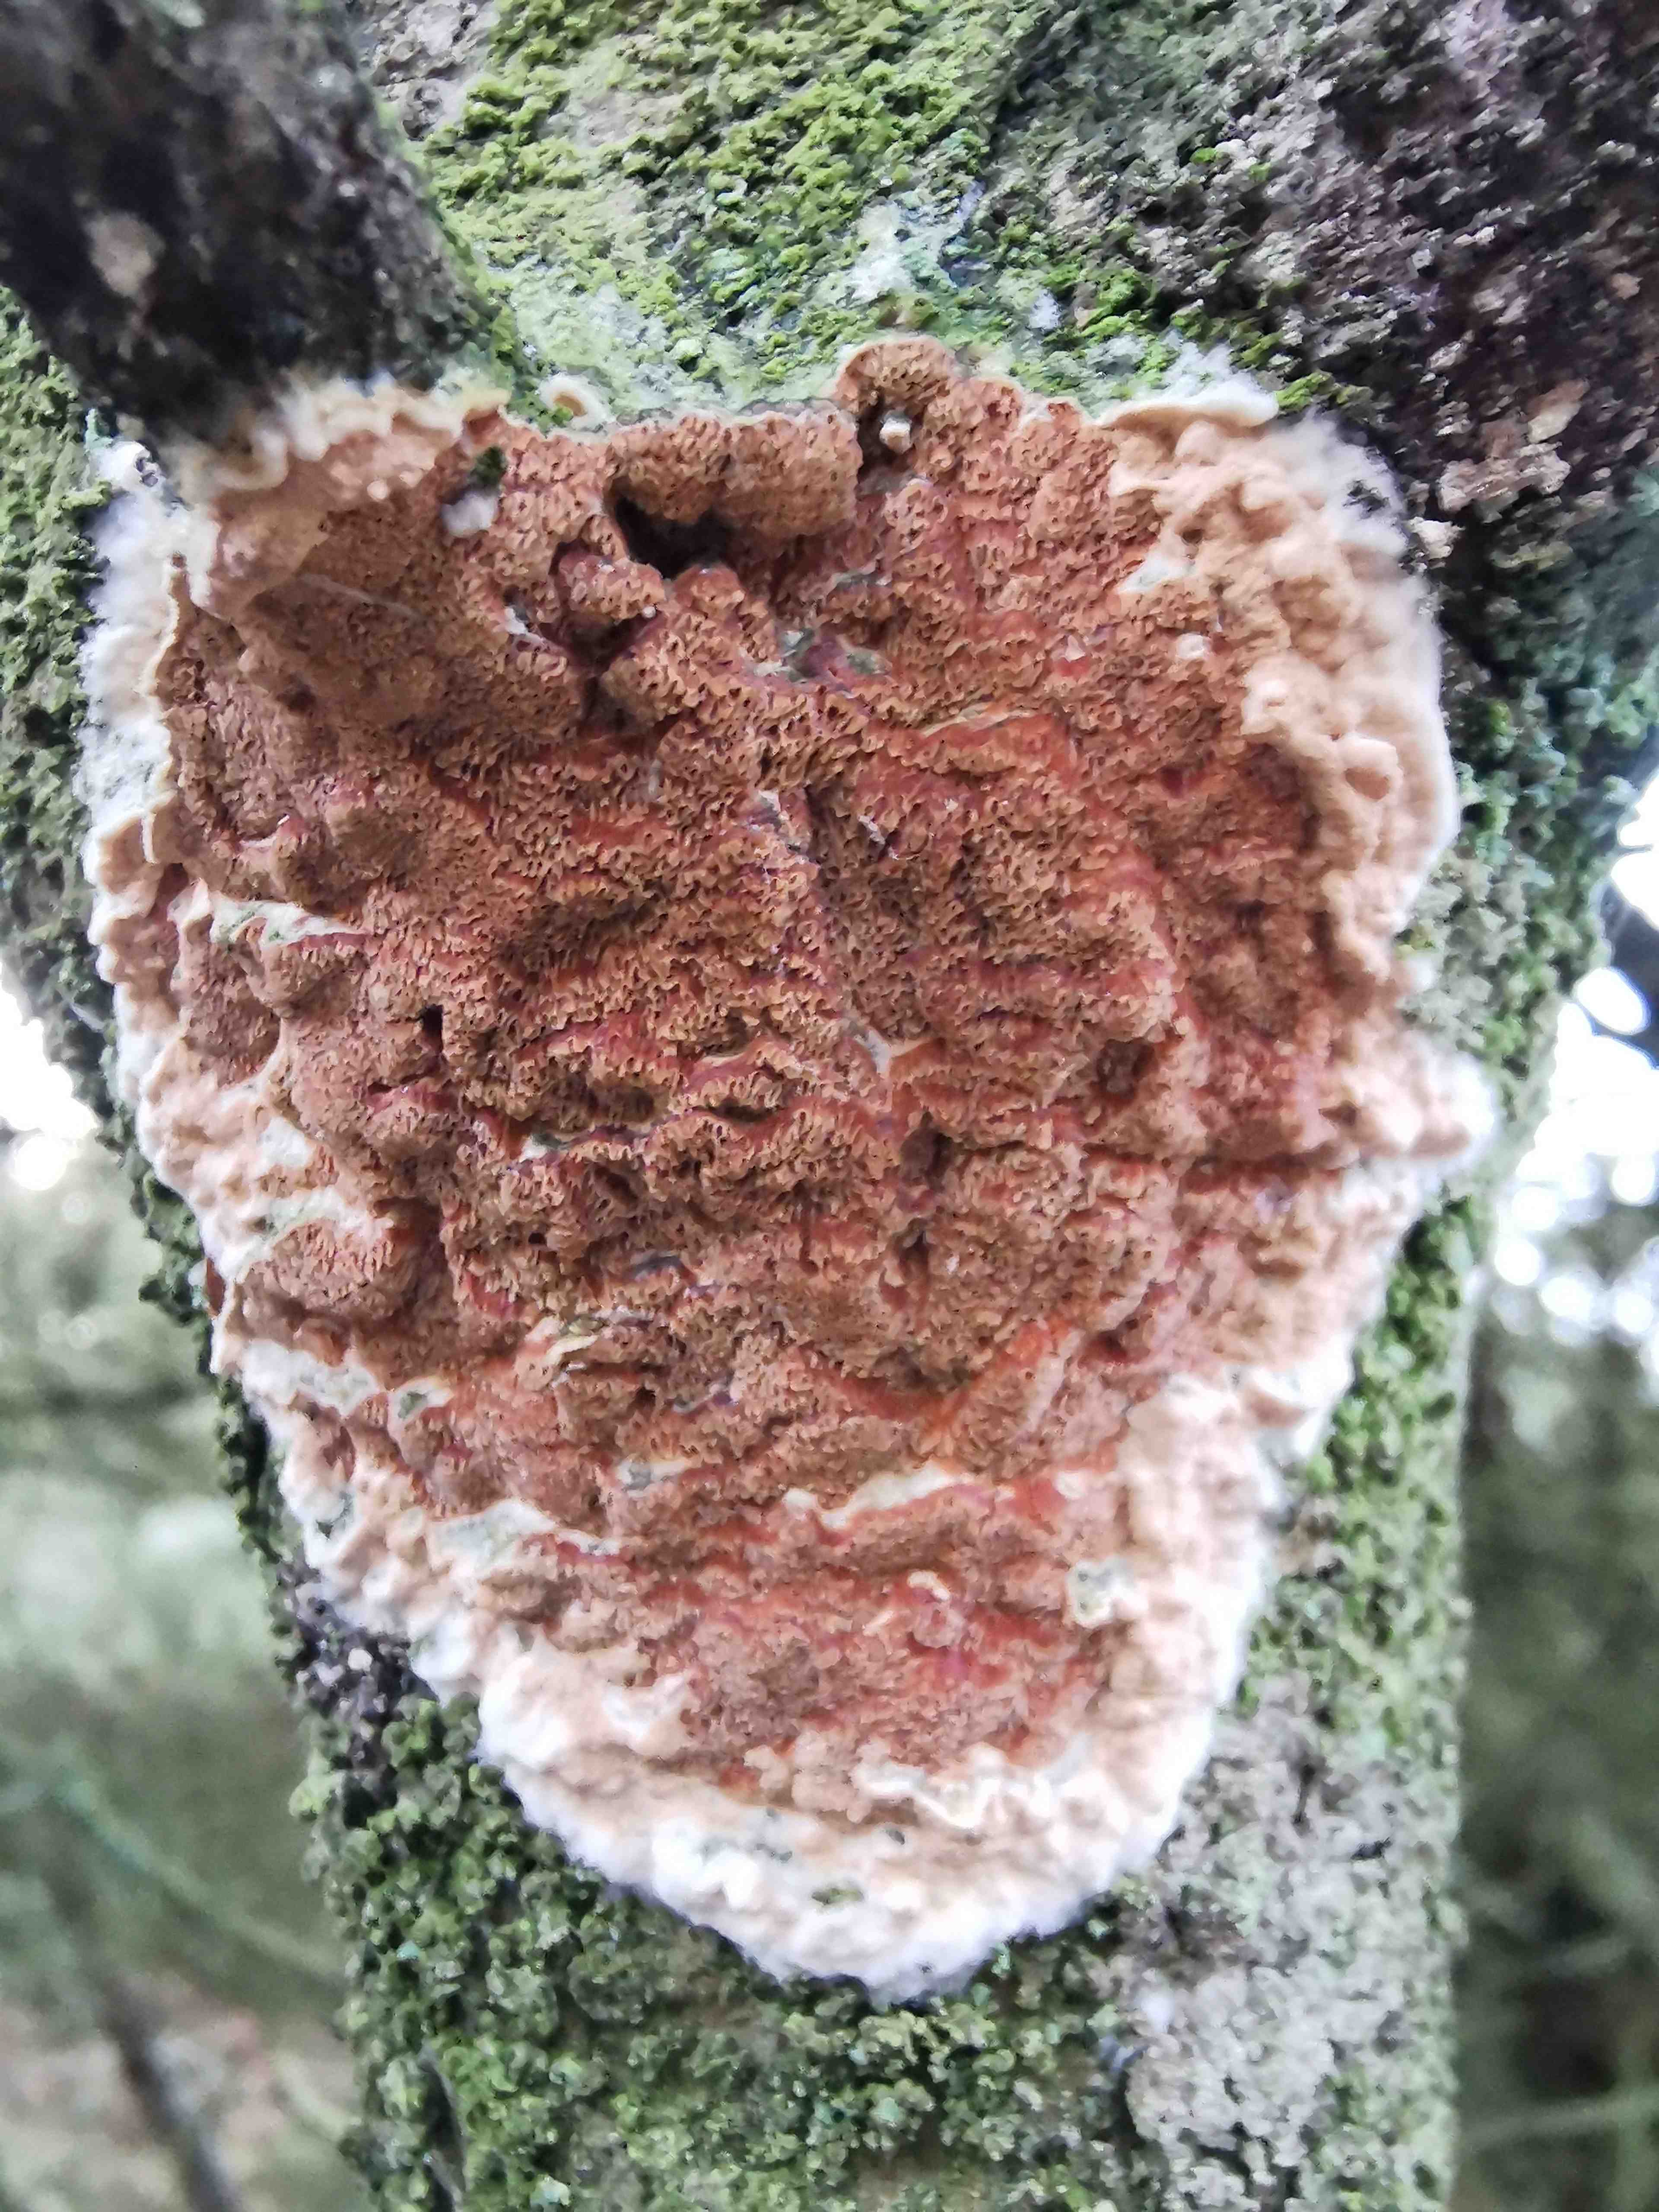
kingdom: Fungi
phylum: Basidiomycota
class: Agaricomycetes
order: Polyporales
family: Irpicaceae
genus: Meruliopsis
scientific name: Meruliopsis taxicola
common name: purpurbrun foldporesvamp
